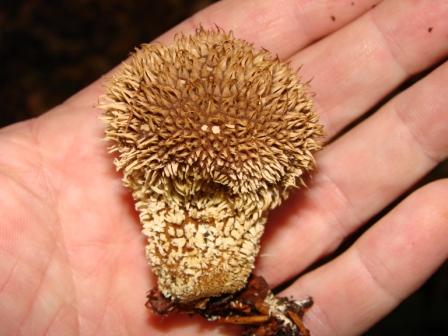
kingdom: Fungi
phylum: Basidiomycota
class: Agaricomycetes
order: Agaricales
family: Lycoperdaceae
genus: Lycoperdon
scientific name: Lycoperdon echinatum
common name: pindsvine-støvbold
